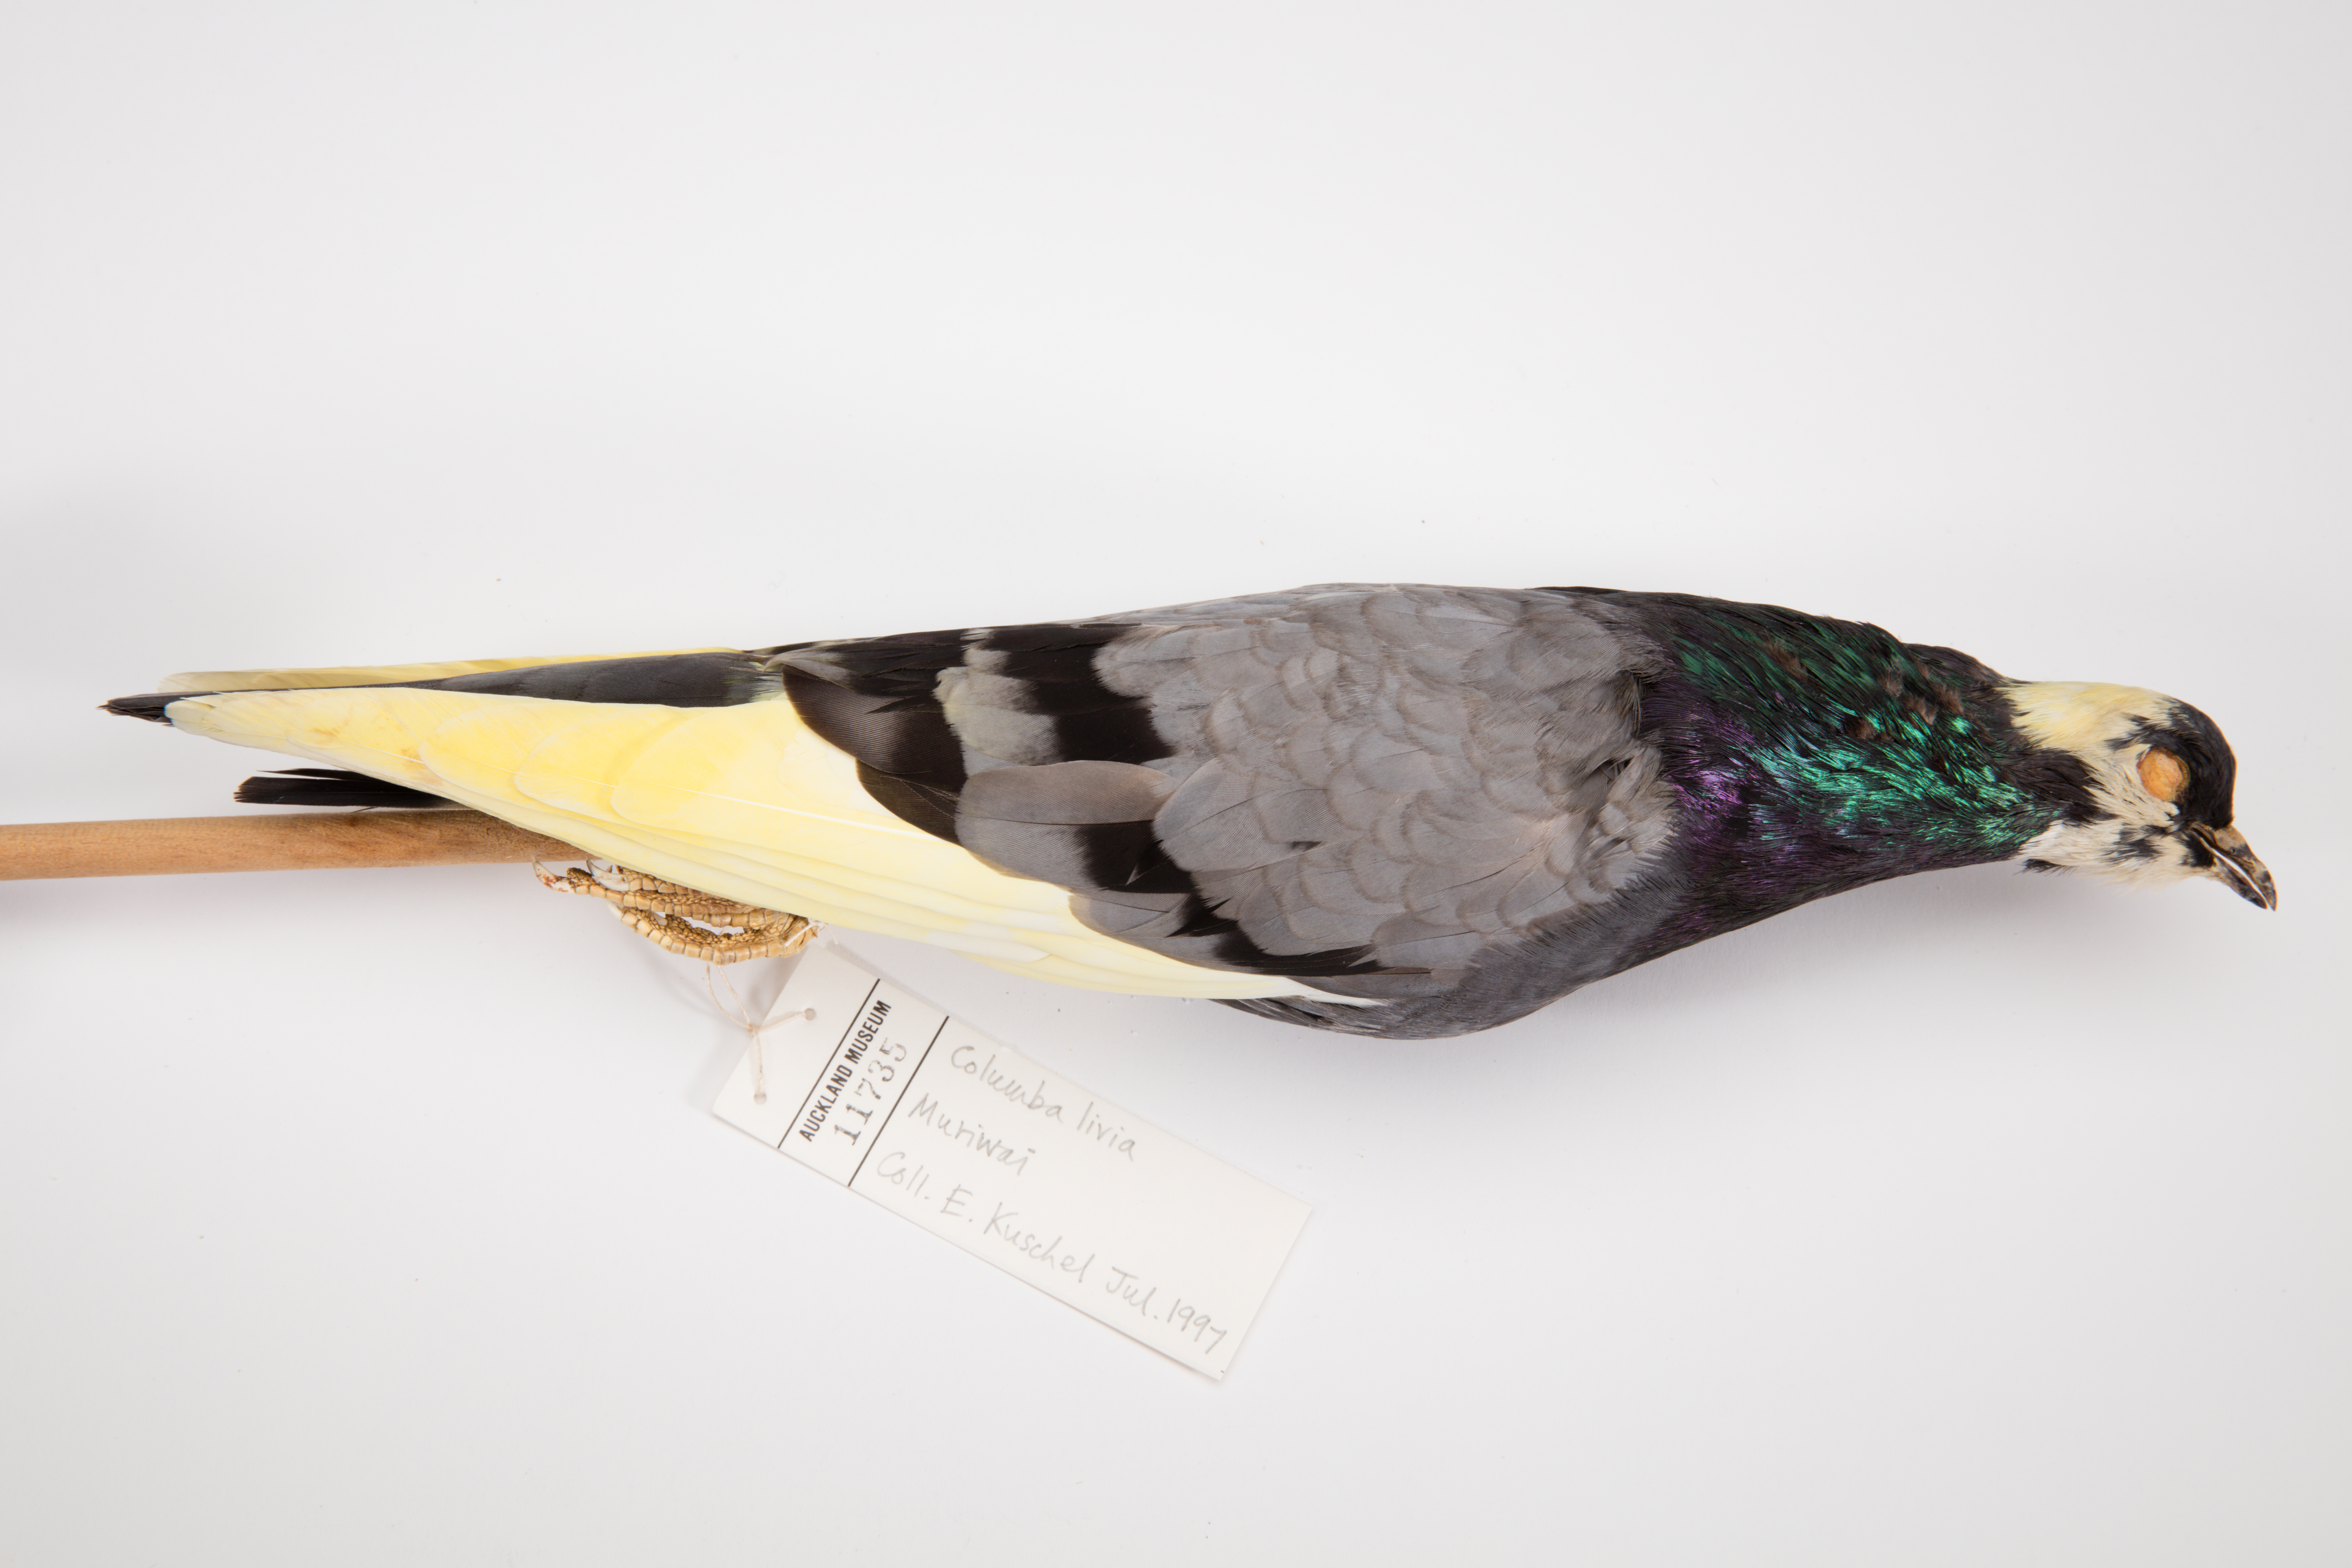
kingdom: Animalia
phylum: Chordata
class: Aves
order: Columbiformes
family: Columbidae
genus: Columba
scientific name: Columba livia
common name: Rock pigeon
